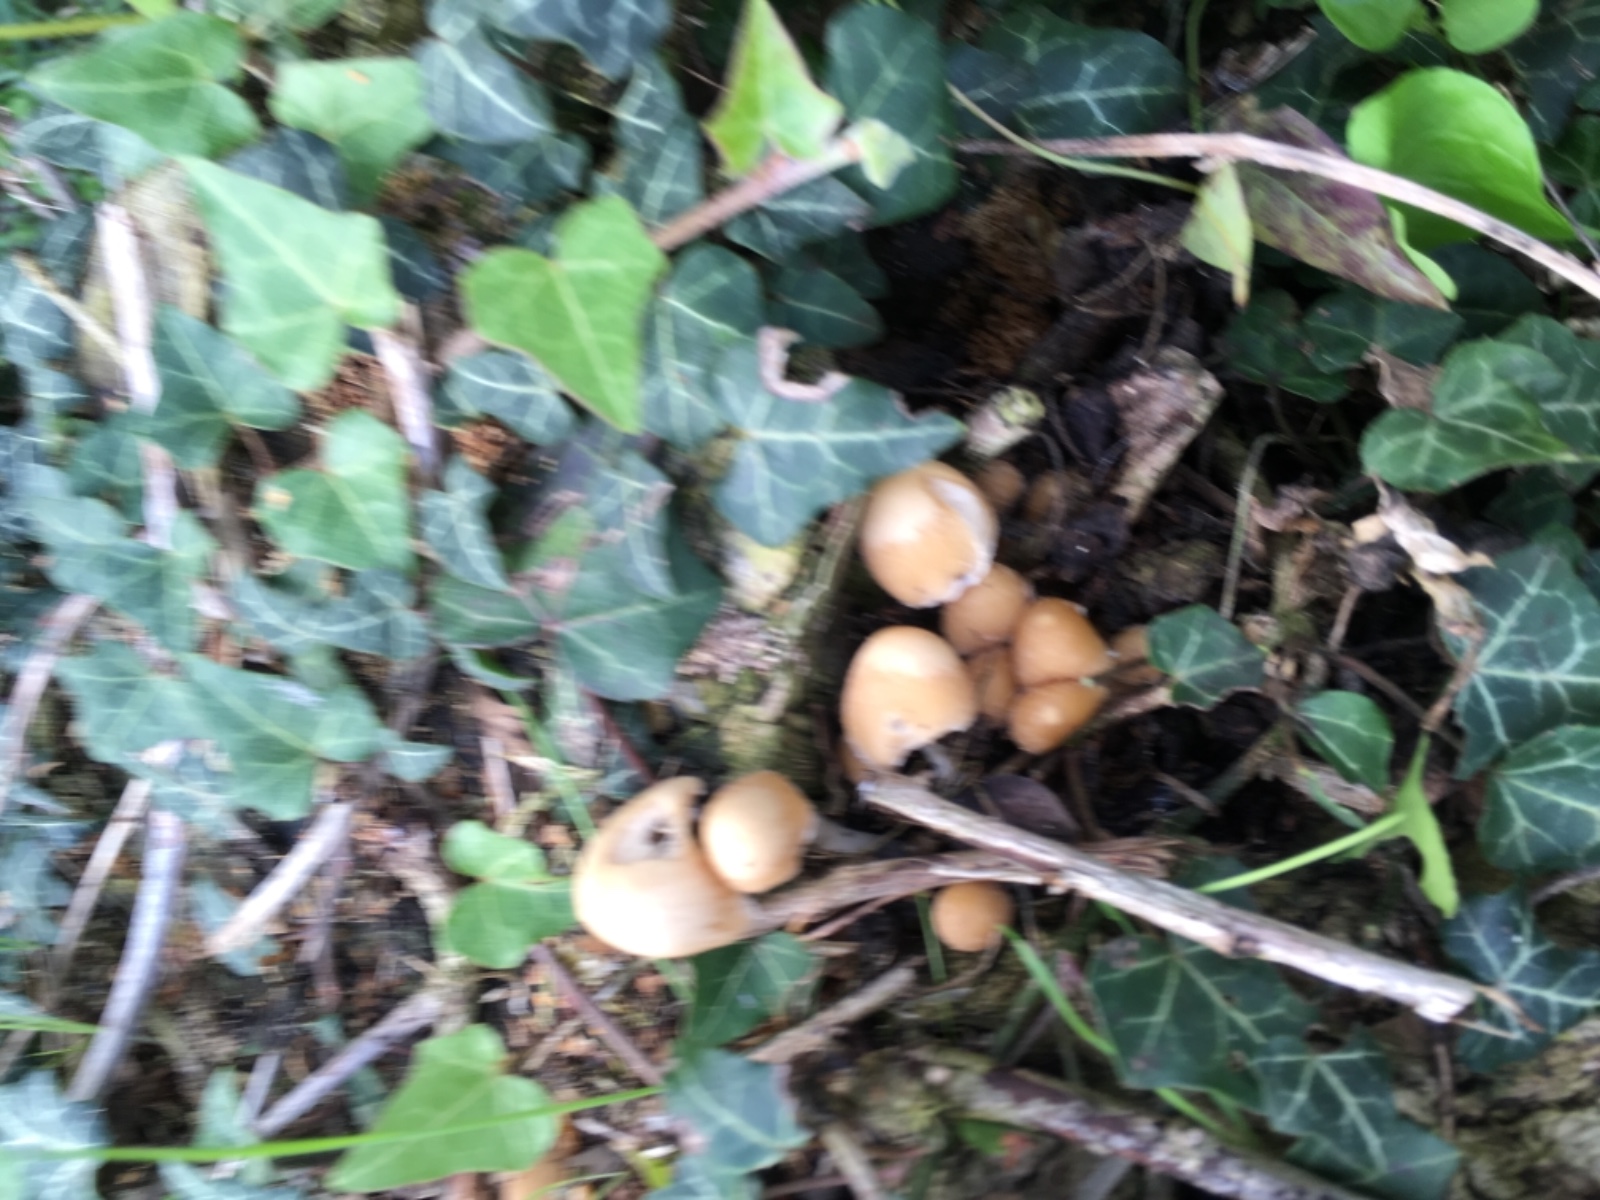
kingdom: Fungi
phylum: Basidiomycota
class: Agaricomycetes
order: Agaricales
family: Psathyrellaceae
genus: Candolleomyces
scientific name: Candolleomyces candolleanus
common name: Candolles mørkhat
